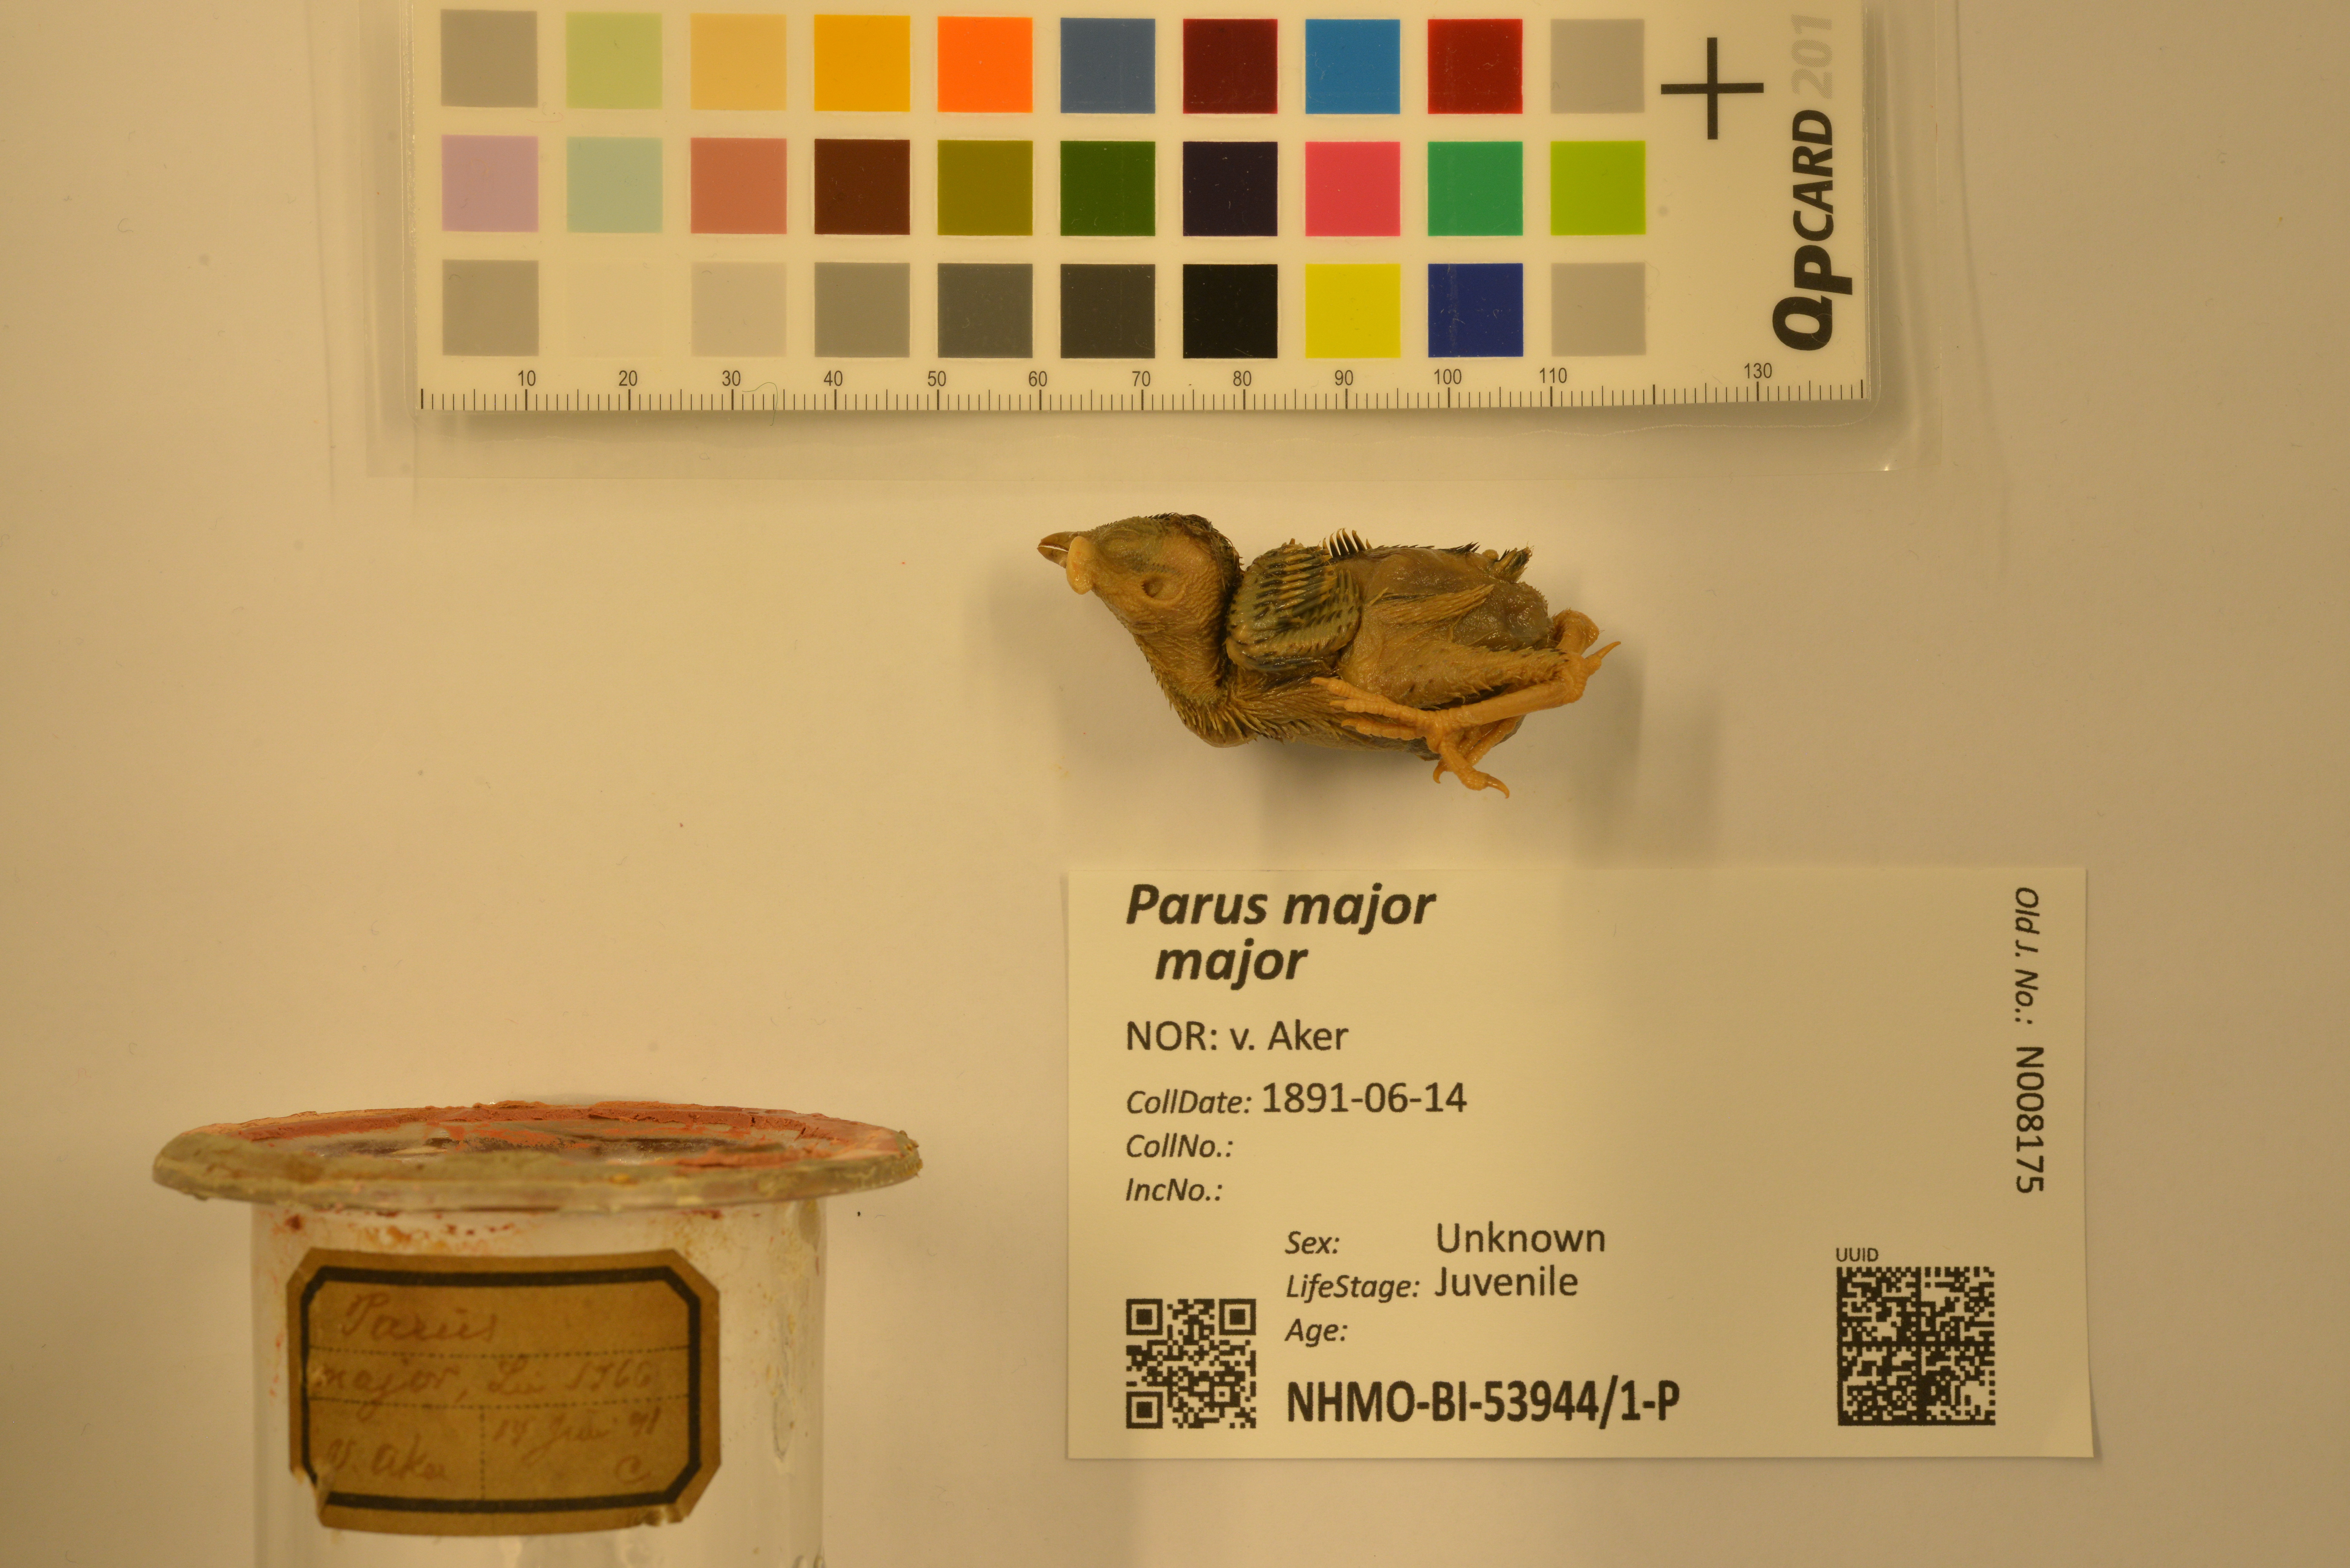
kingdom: Animalia
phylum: Chordata
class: Aves
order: Passeriformes
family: Paridae
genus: Parus
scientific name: Parus major
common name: Great tit
